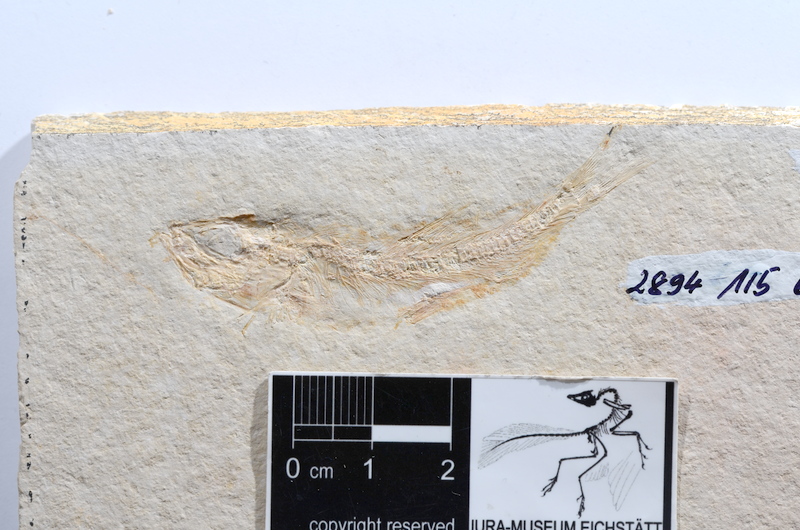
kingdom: Animalia
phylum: Chordata
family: Ascalaboidae
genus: Tharsis
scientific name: Tharsis dubius
